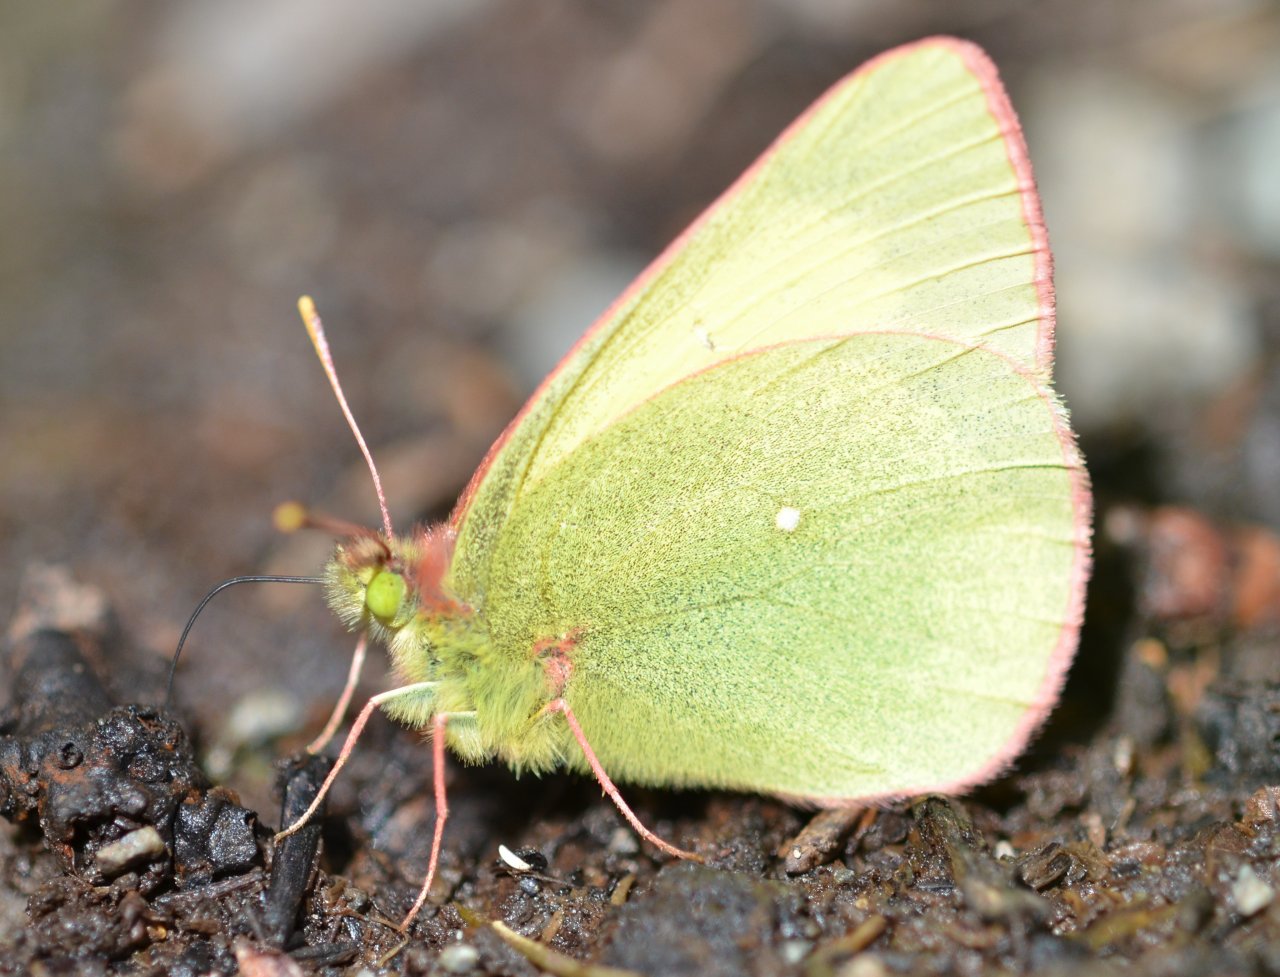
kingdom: Animalia
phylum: Arthropoda
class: Insecta
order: Lepidoptera
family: Pieridae
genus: Colias
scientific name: Colias palaeno
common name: Chippewa Sulphur
